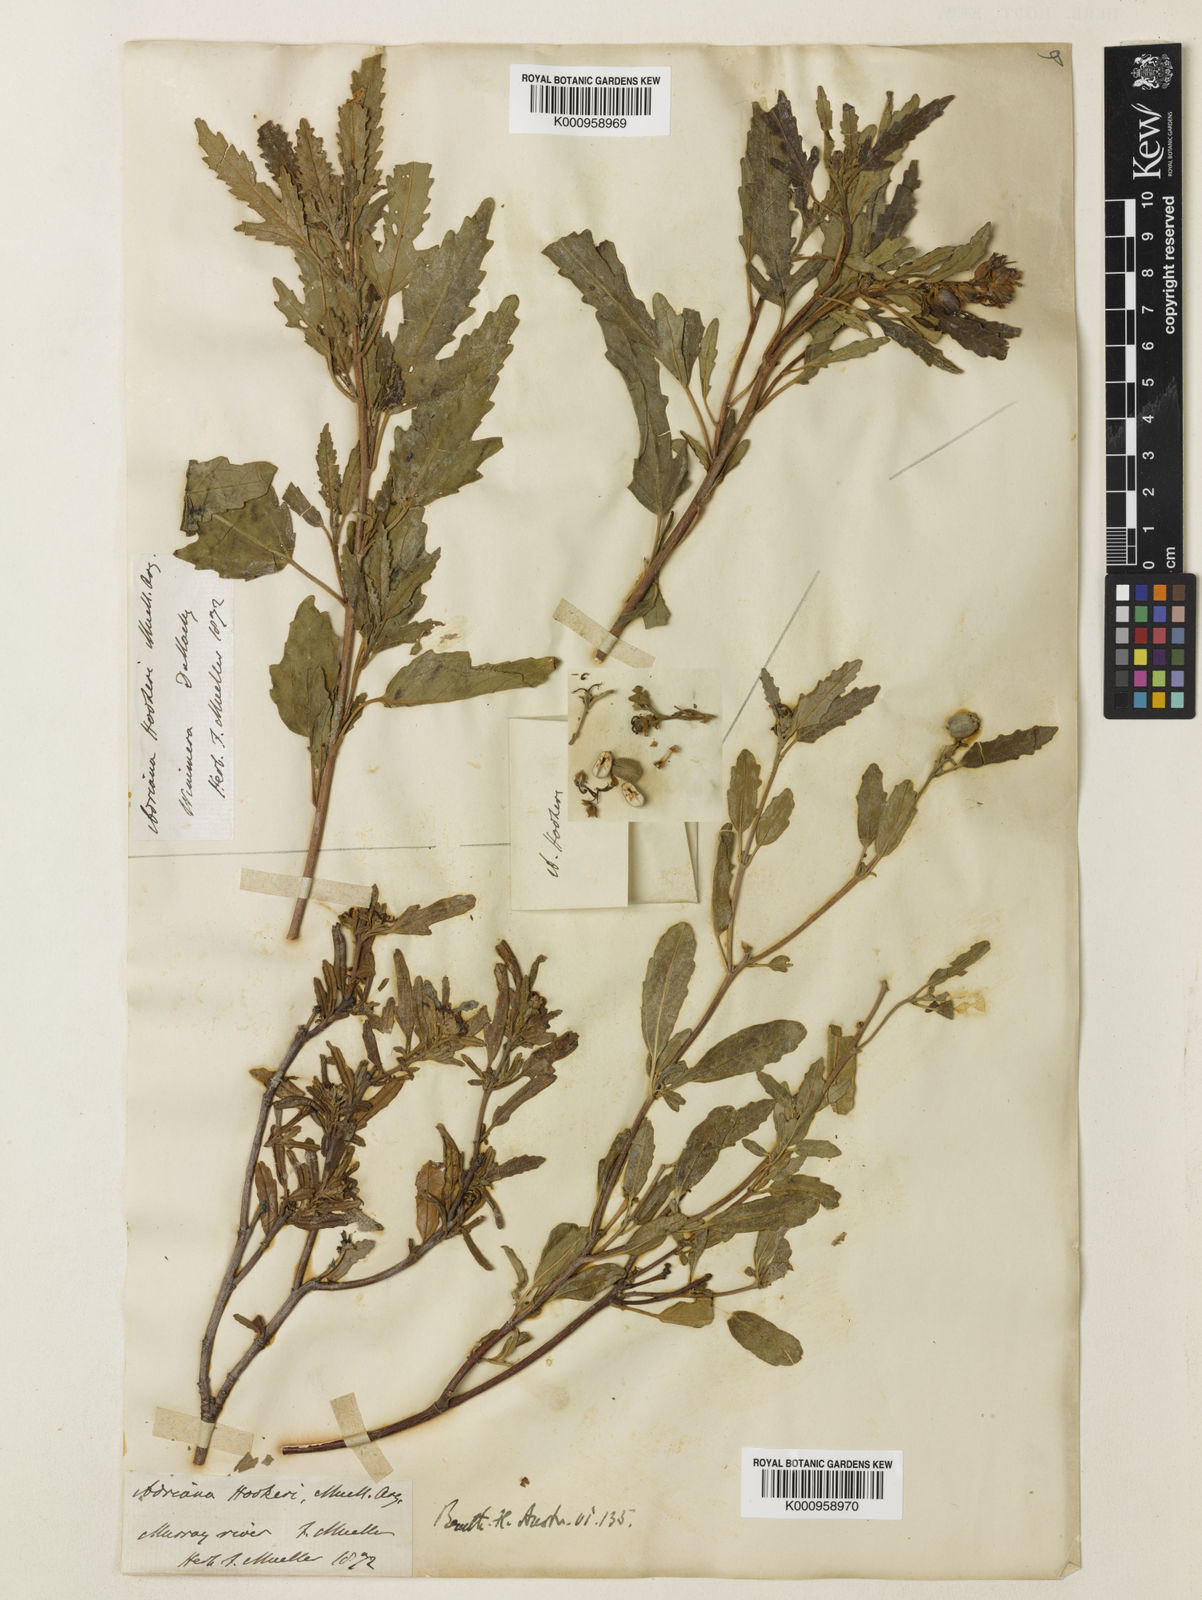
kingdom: Plantae
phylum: Tracheophyta
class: Magnoliopsida
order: Malpighiales
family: Euphorbiaceae
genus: Adriana
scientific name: Adriana
